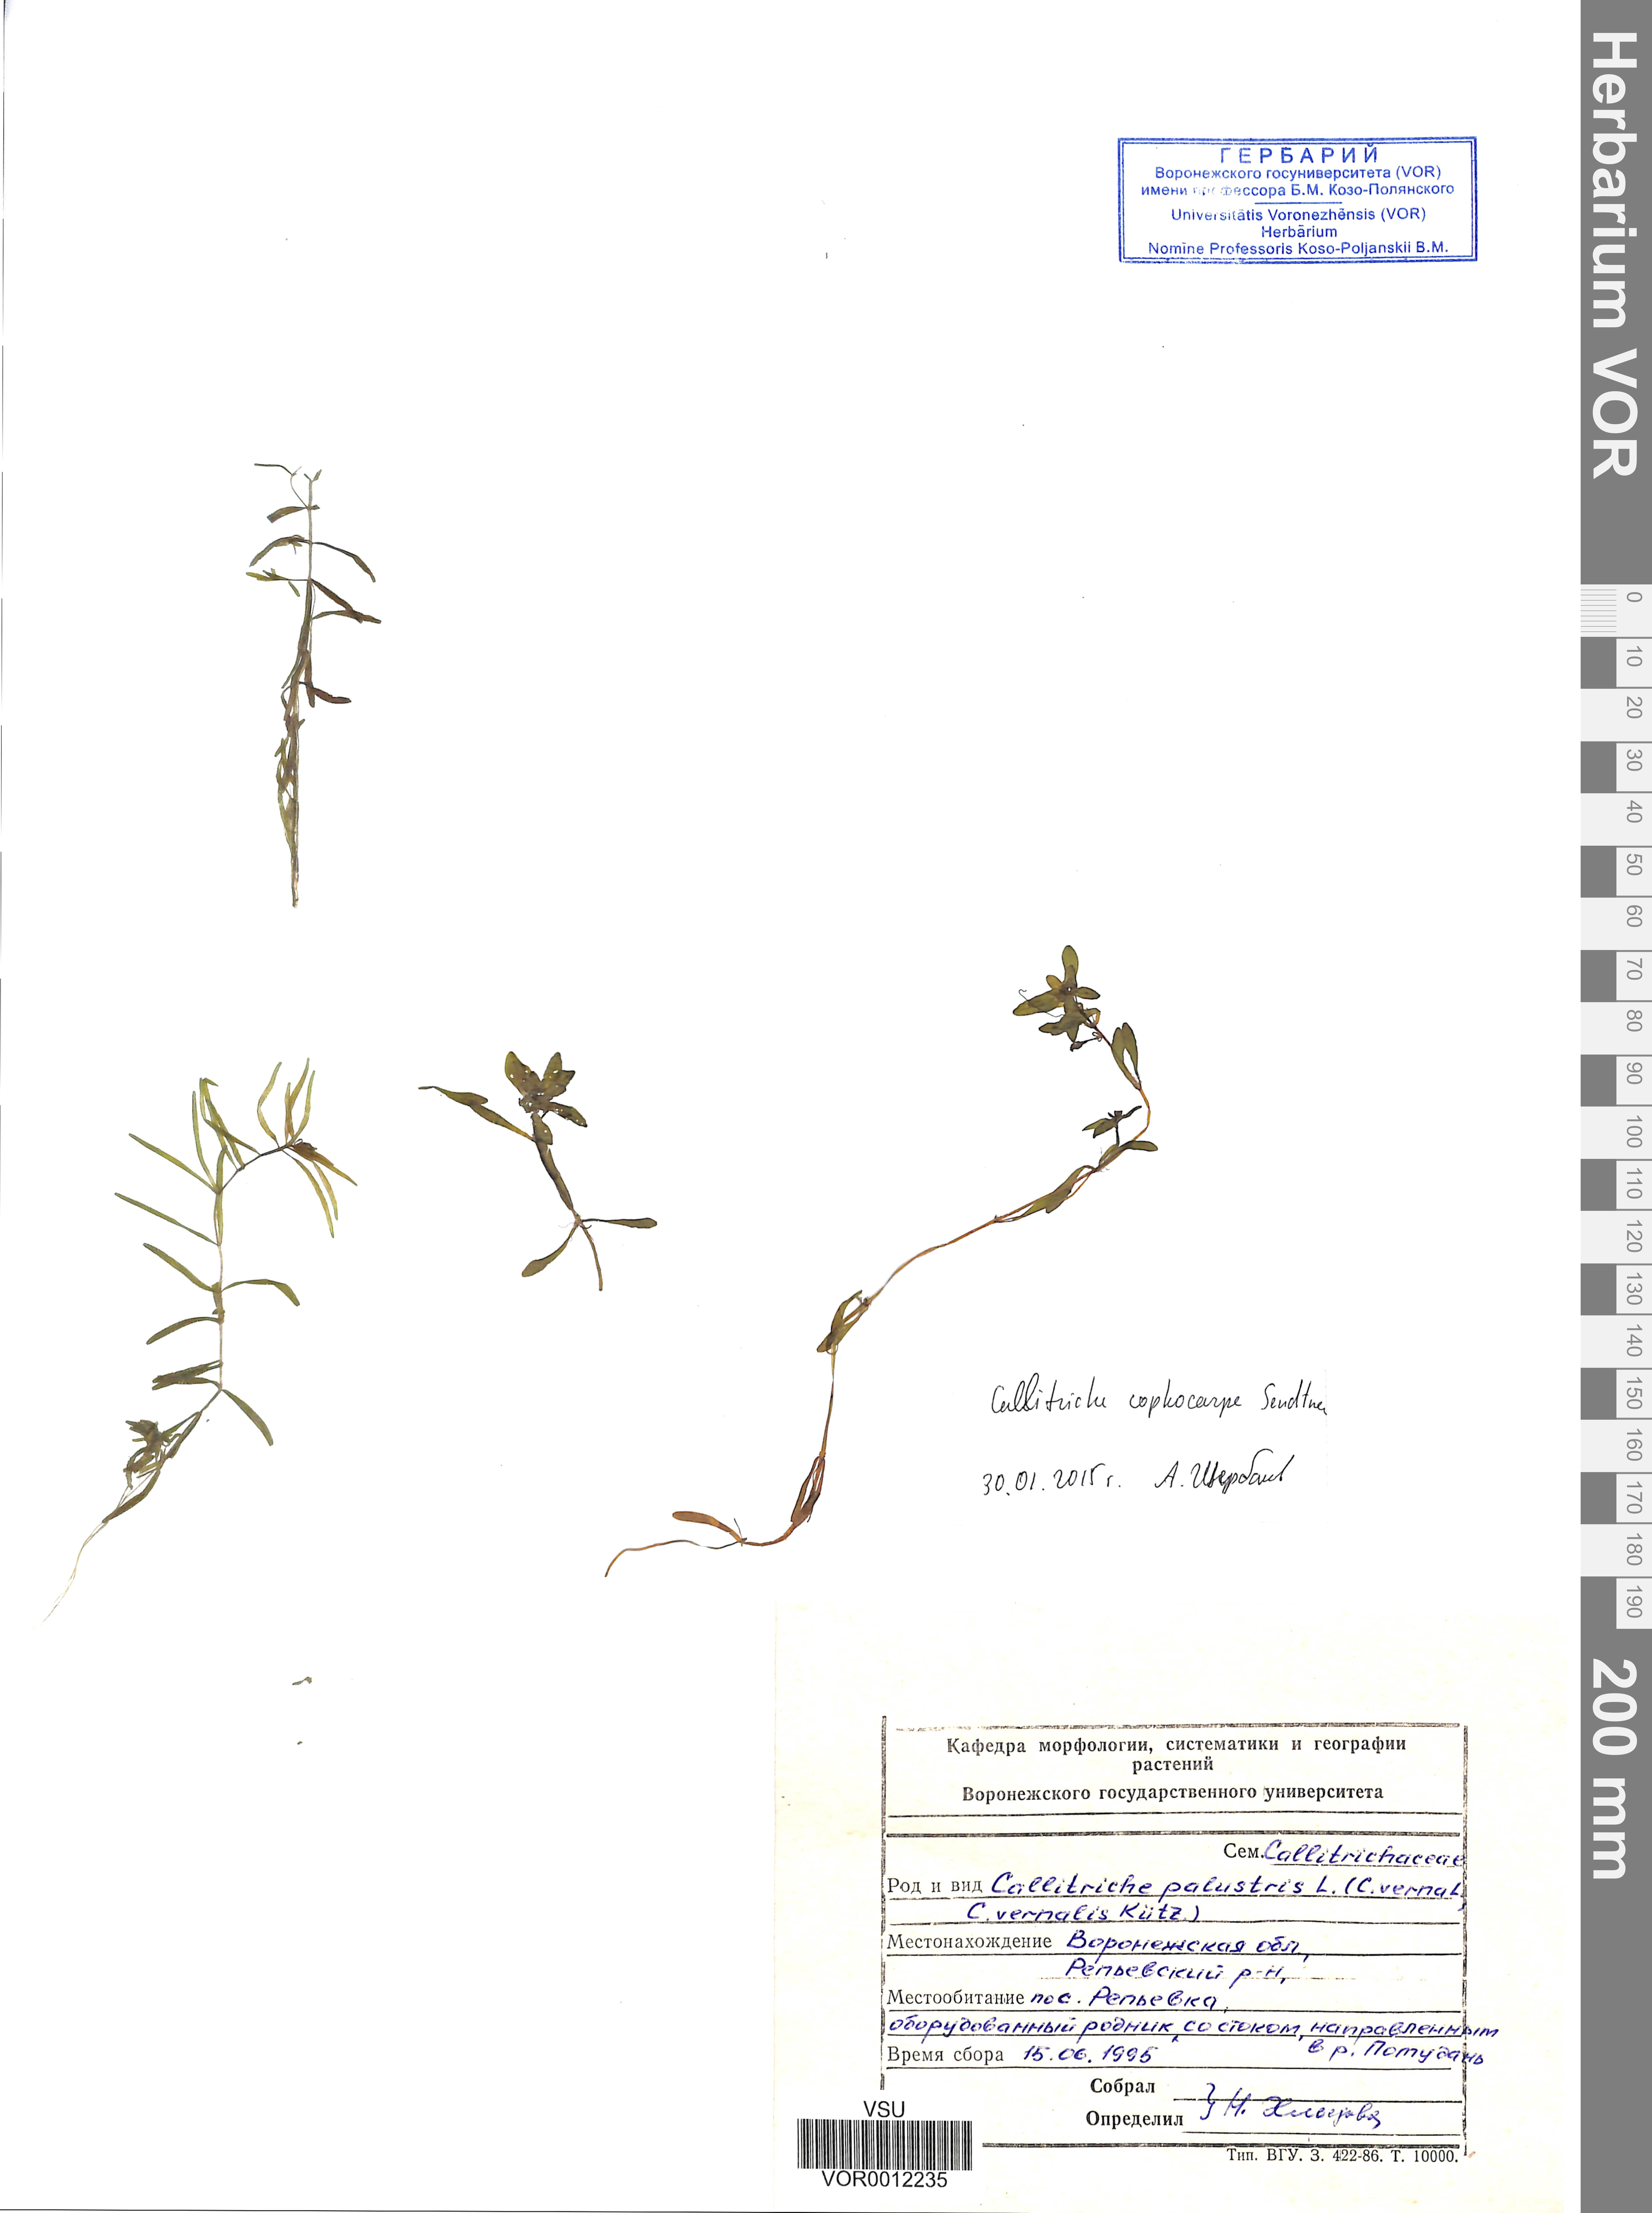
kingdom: Plantae
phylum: Tracheophyta
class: Magnoliopsida
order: Lamiales
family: Plantaginaceae
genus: Callitriche
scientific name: Callitriche cophocarpa
